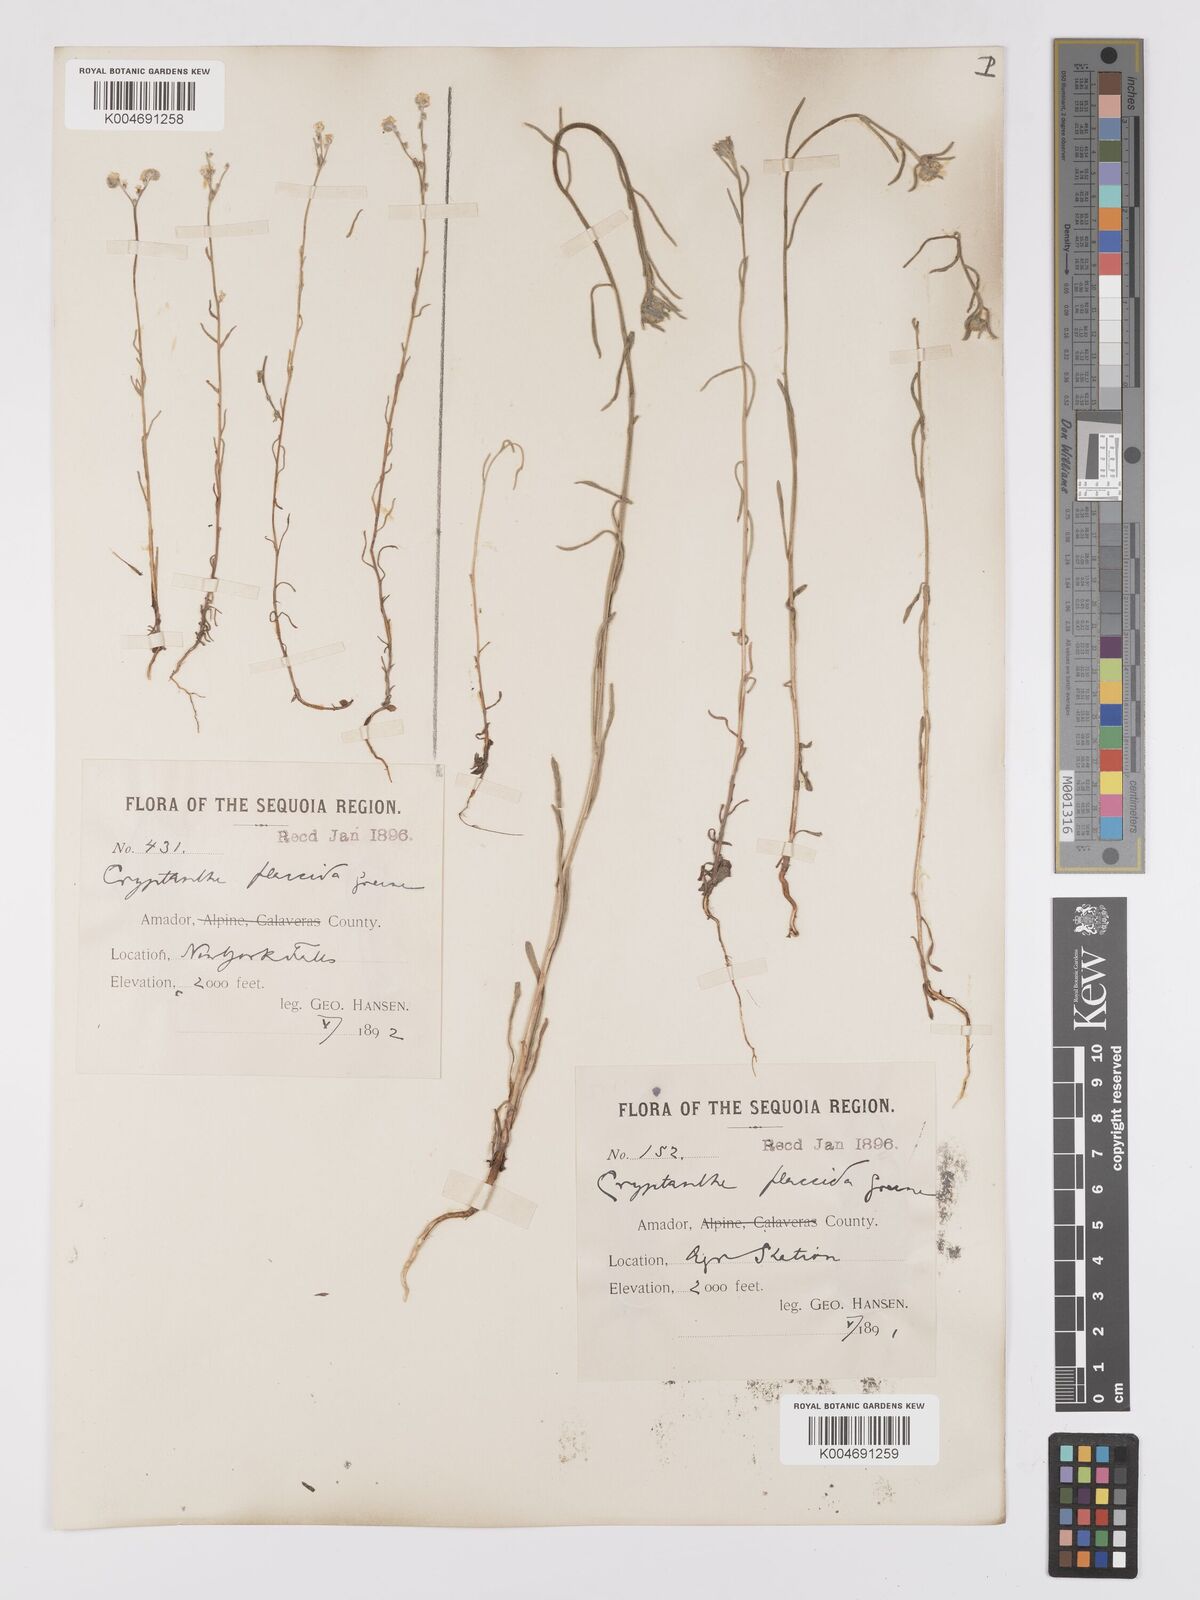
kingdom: Plantae
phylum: Tracheophyta
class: Magnoliopsida
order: Boraginales
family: Boraginaceae
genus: Cryptantha
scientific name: Cryptantha flaccida
